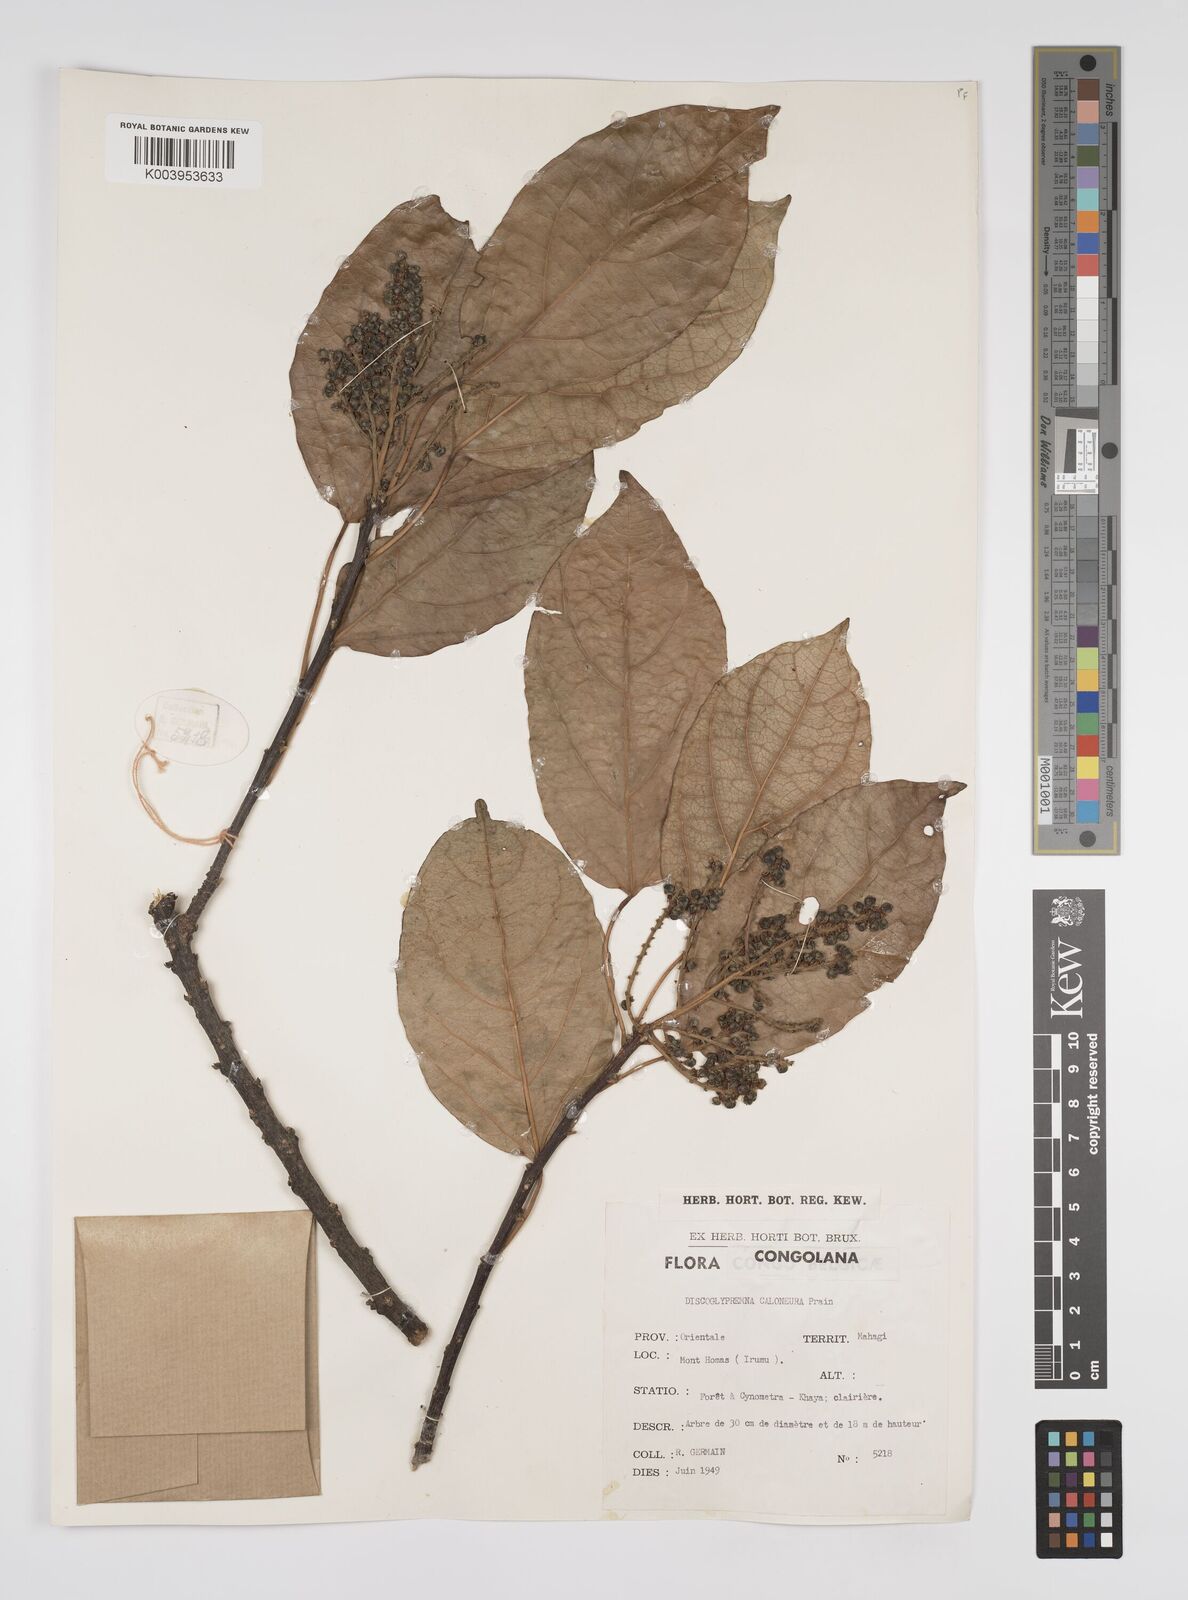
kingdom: Plantae
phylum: Tracheophyta
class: Magnoliopsida
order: Malpighiales
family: Euphorbiaceae
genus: Discoglypremna
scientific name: Discoglypremna caloneura
